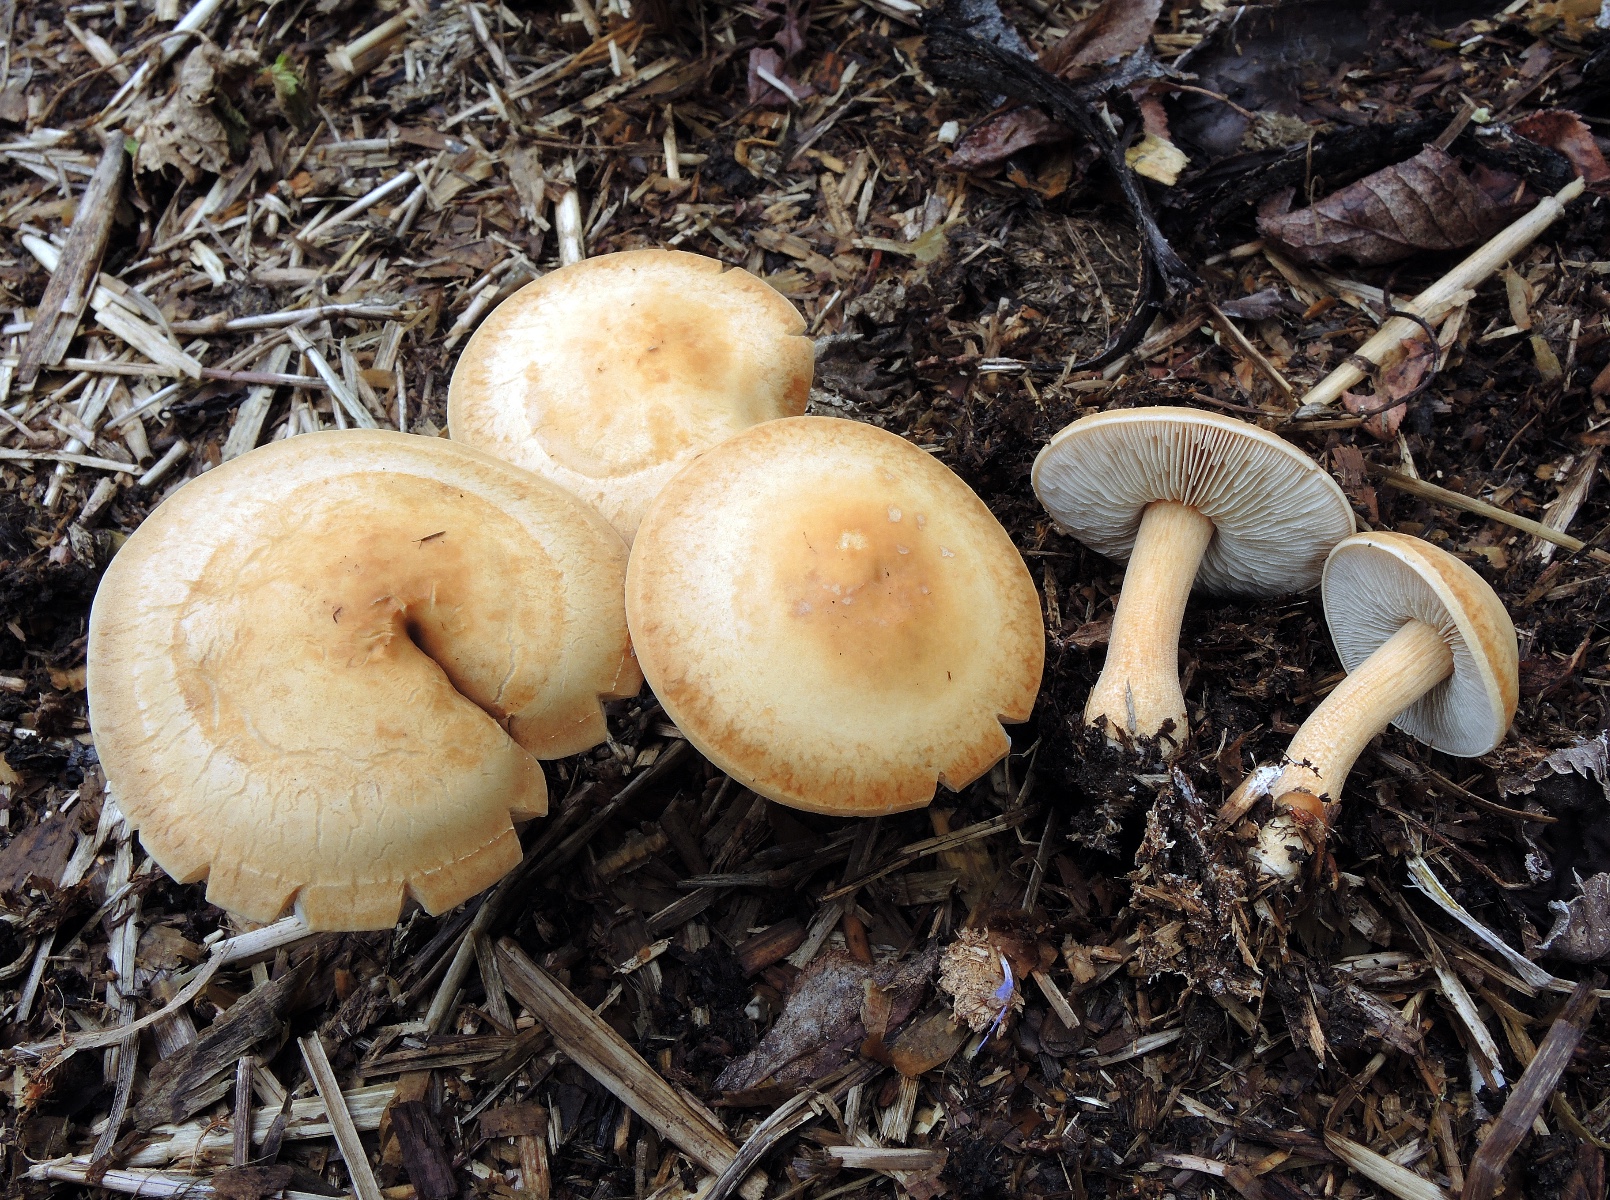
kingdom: Fungi
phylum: Basidiomycota
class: Agaricomycetes
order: Agaricales
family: Strophariaceae
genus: Agrocybe
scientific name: Agrocybe putaminum
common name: træflis-agerhat
